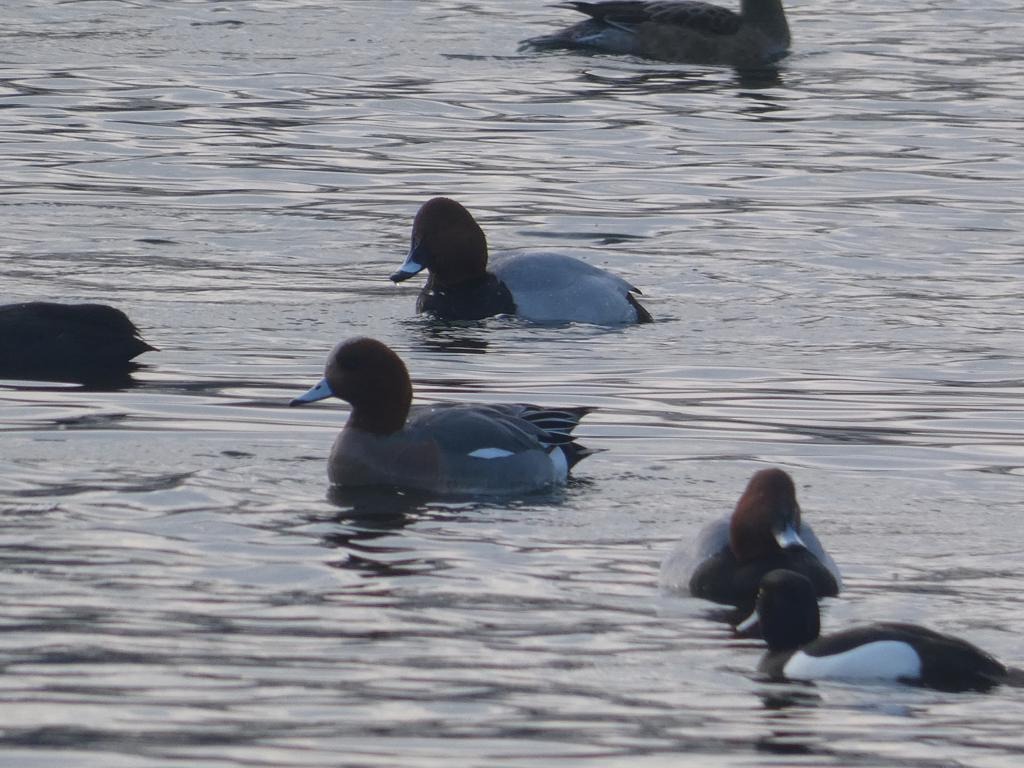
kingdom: Animalia
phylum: Chordata
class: Aves
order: Anseriformes
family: Anatidae
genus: Mareca
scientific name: Mareca penelope
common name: Pibeand
